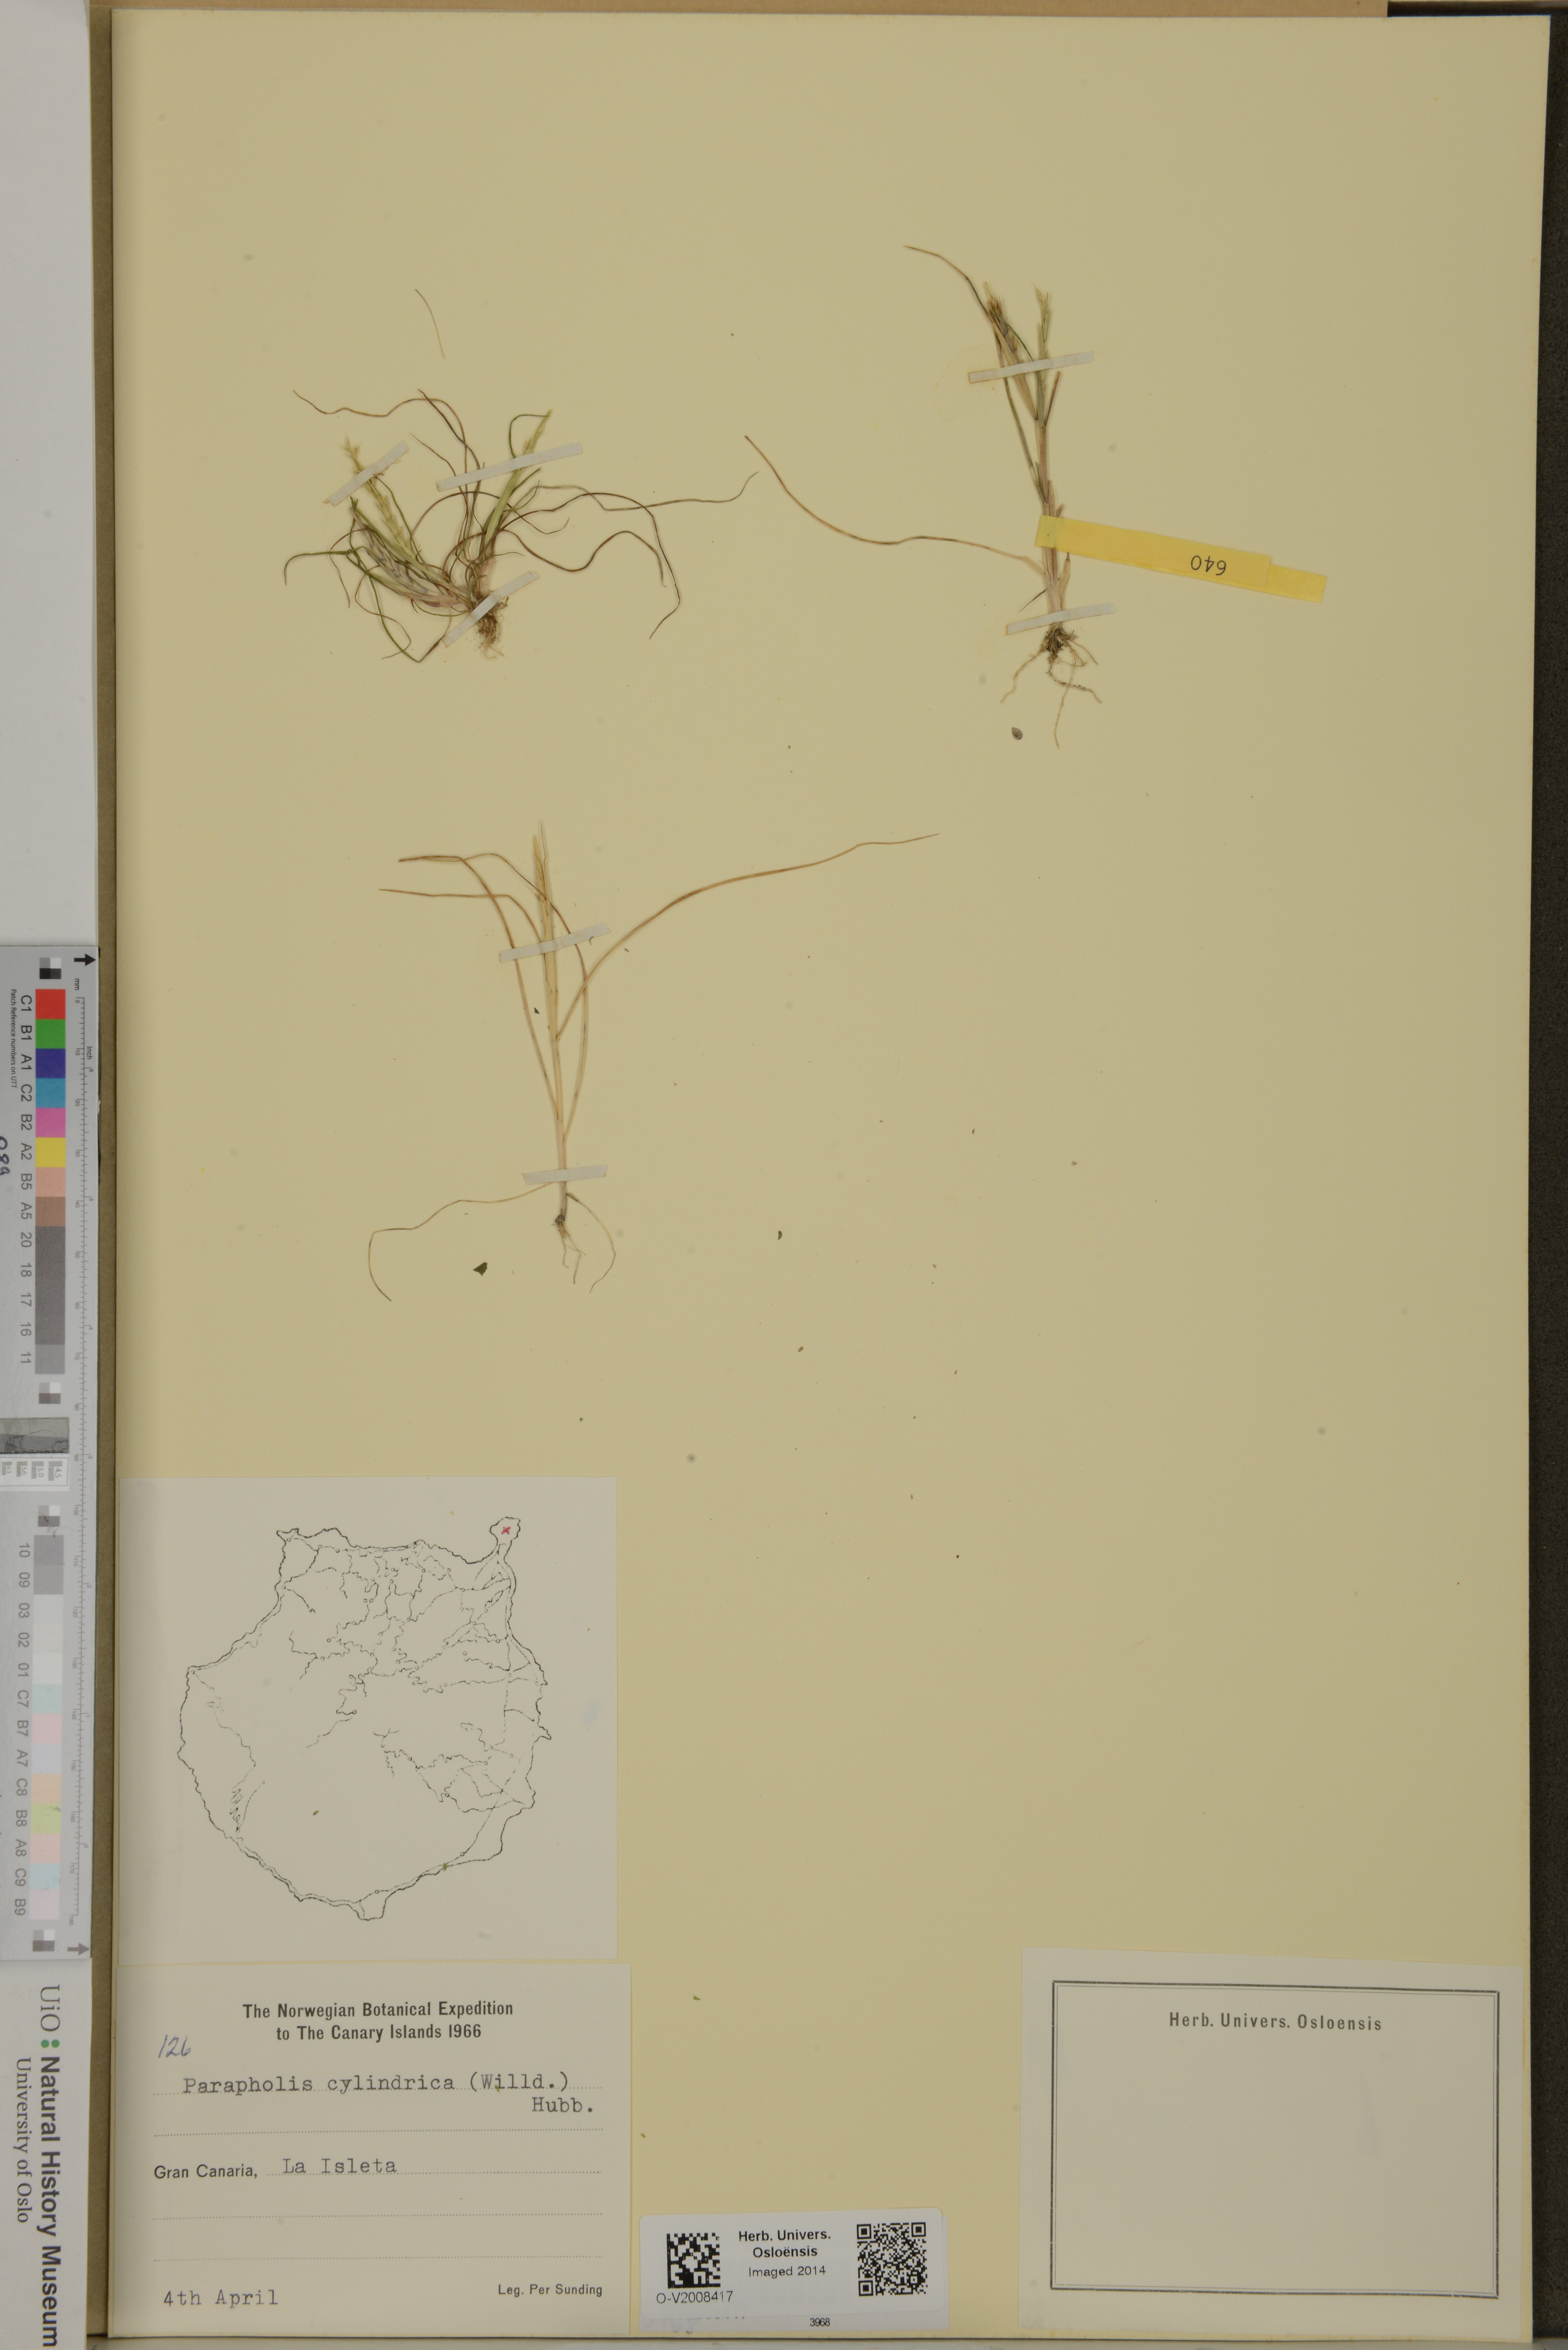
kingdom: Plantae
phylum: Tracheophyta
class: Liliopsida
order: Poales
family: Poaceae
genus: Parapholis
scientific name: Parapholis cylindrica
